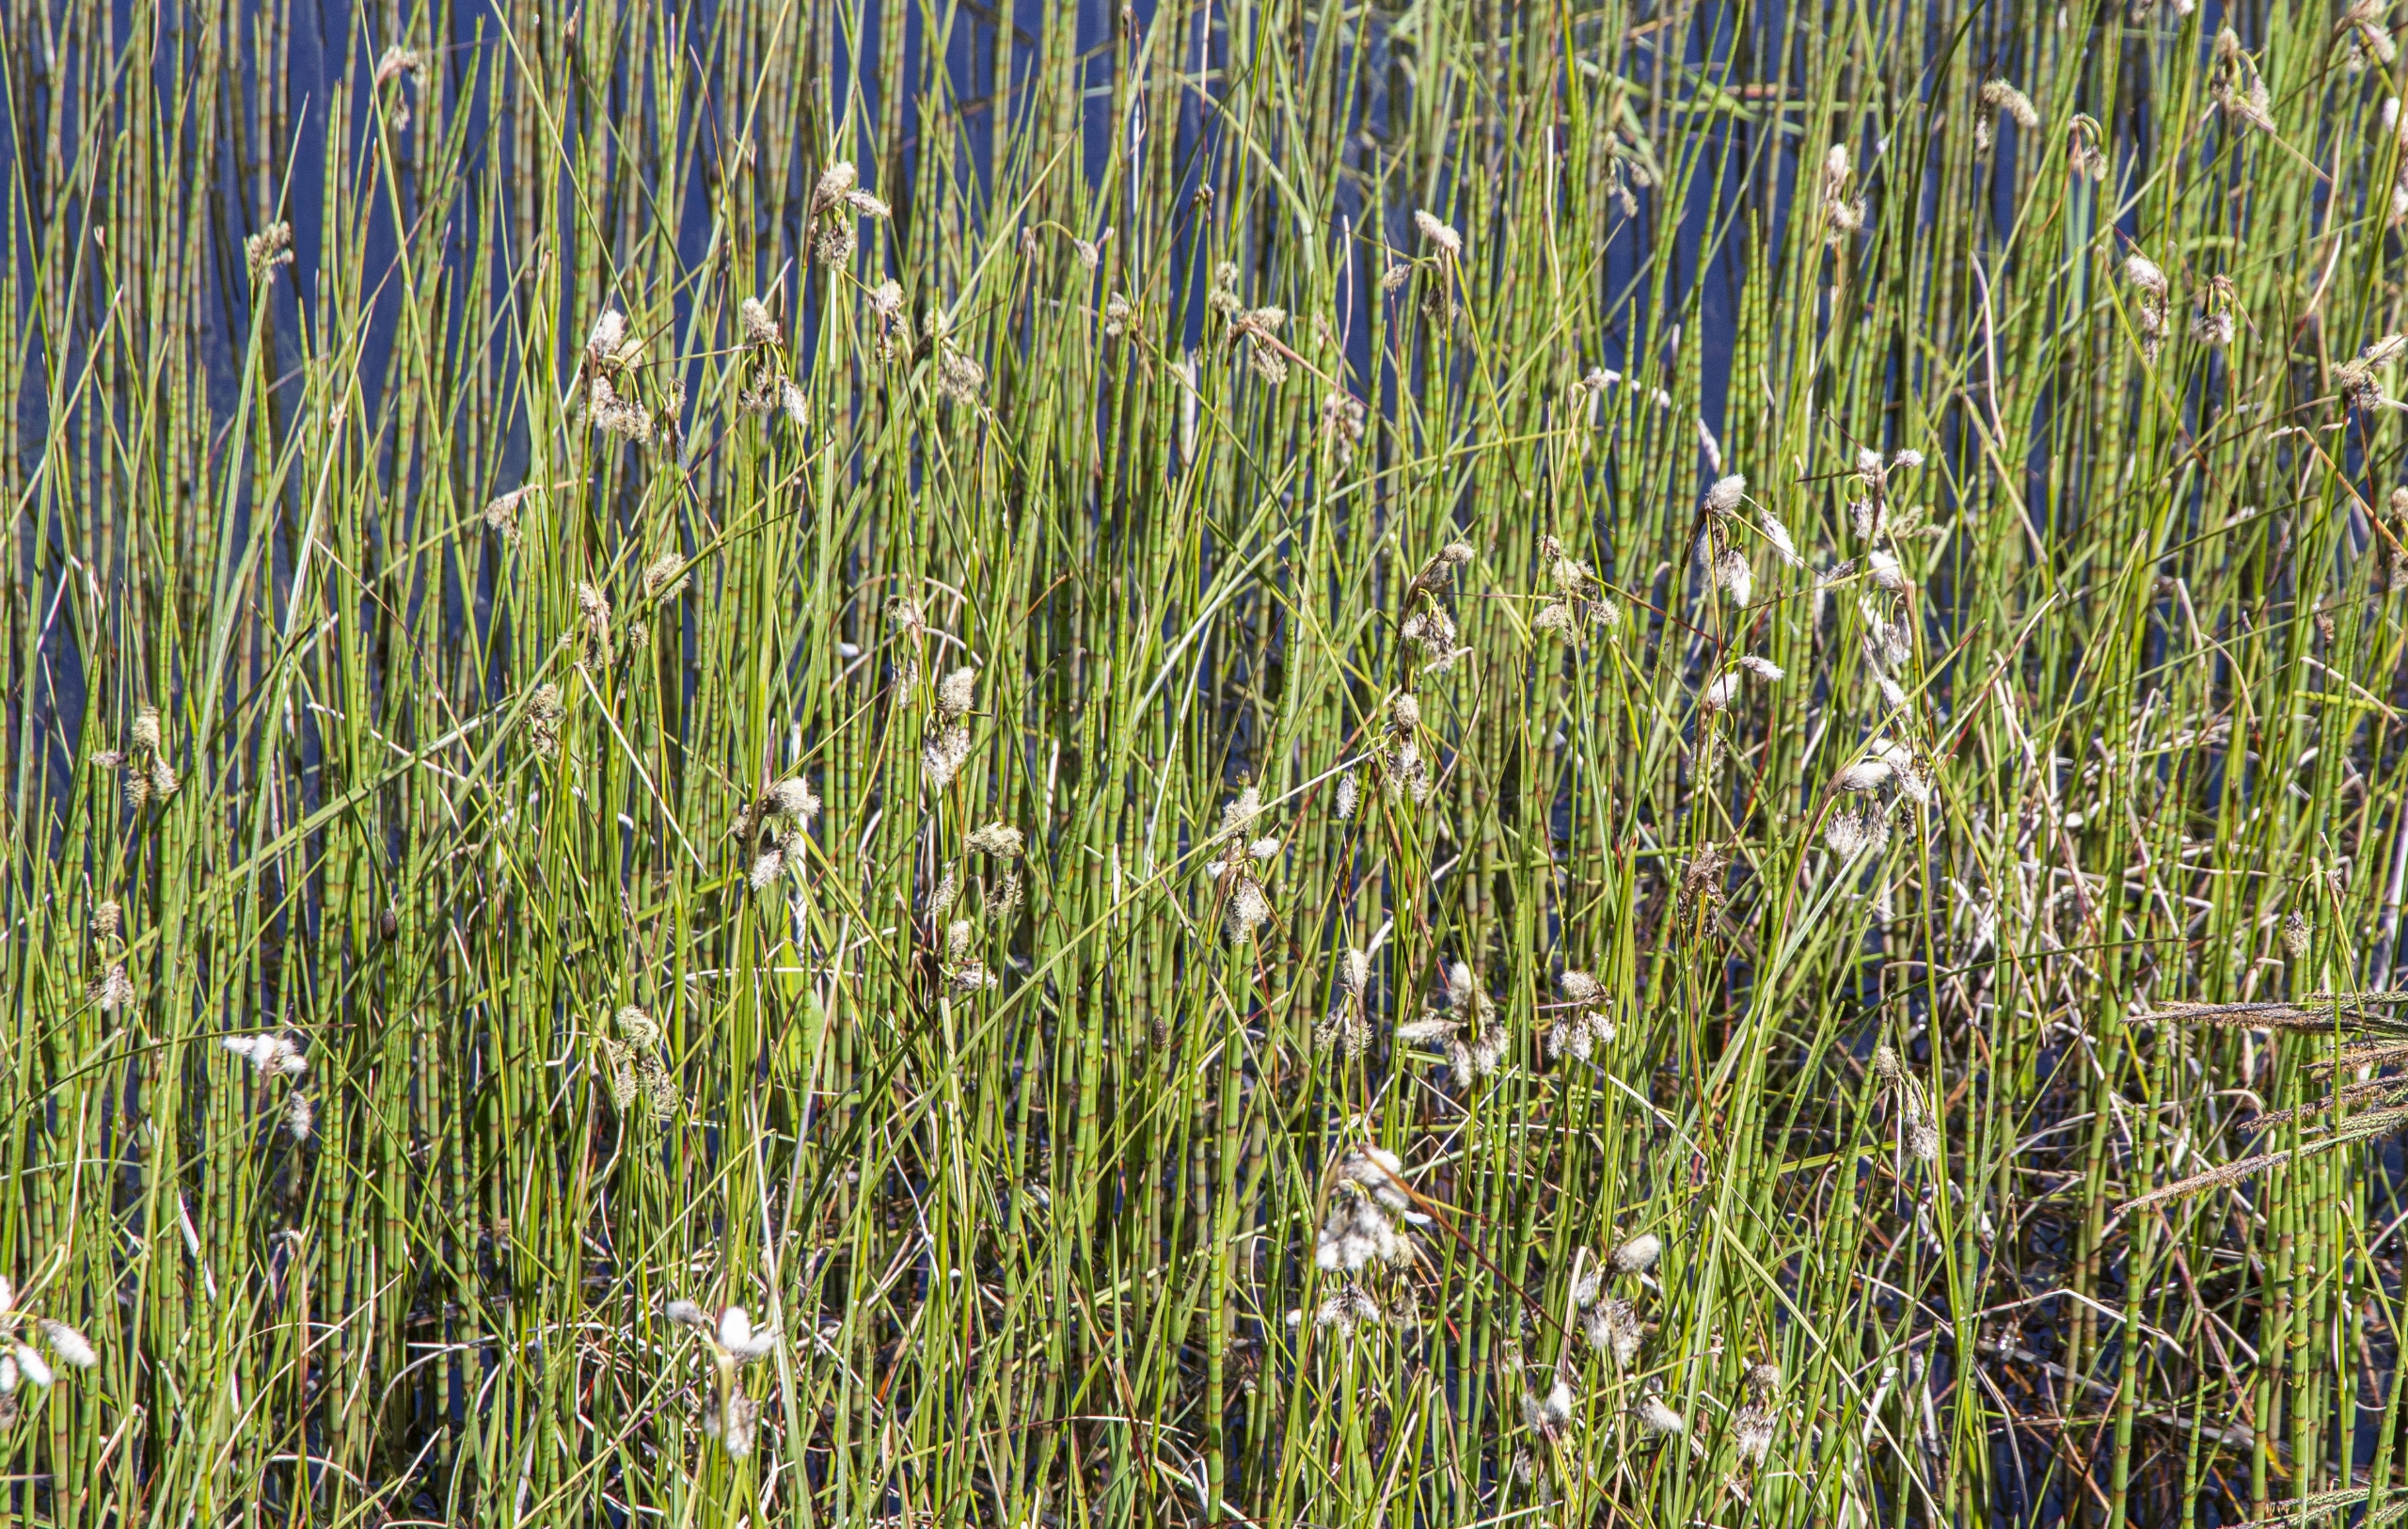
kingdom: Plantae
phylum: Tracheophyta
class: Liliopsida
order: Poales
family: Cyperaceae
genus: Eriophorum
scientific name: Eriophorum angustifolium
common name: Smalbladet kæruld
